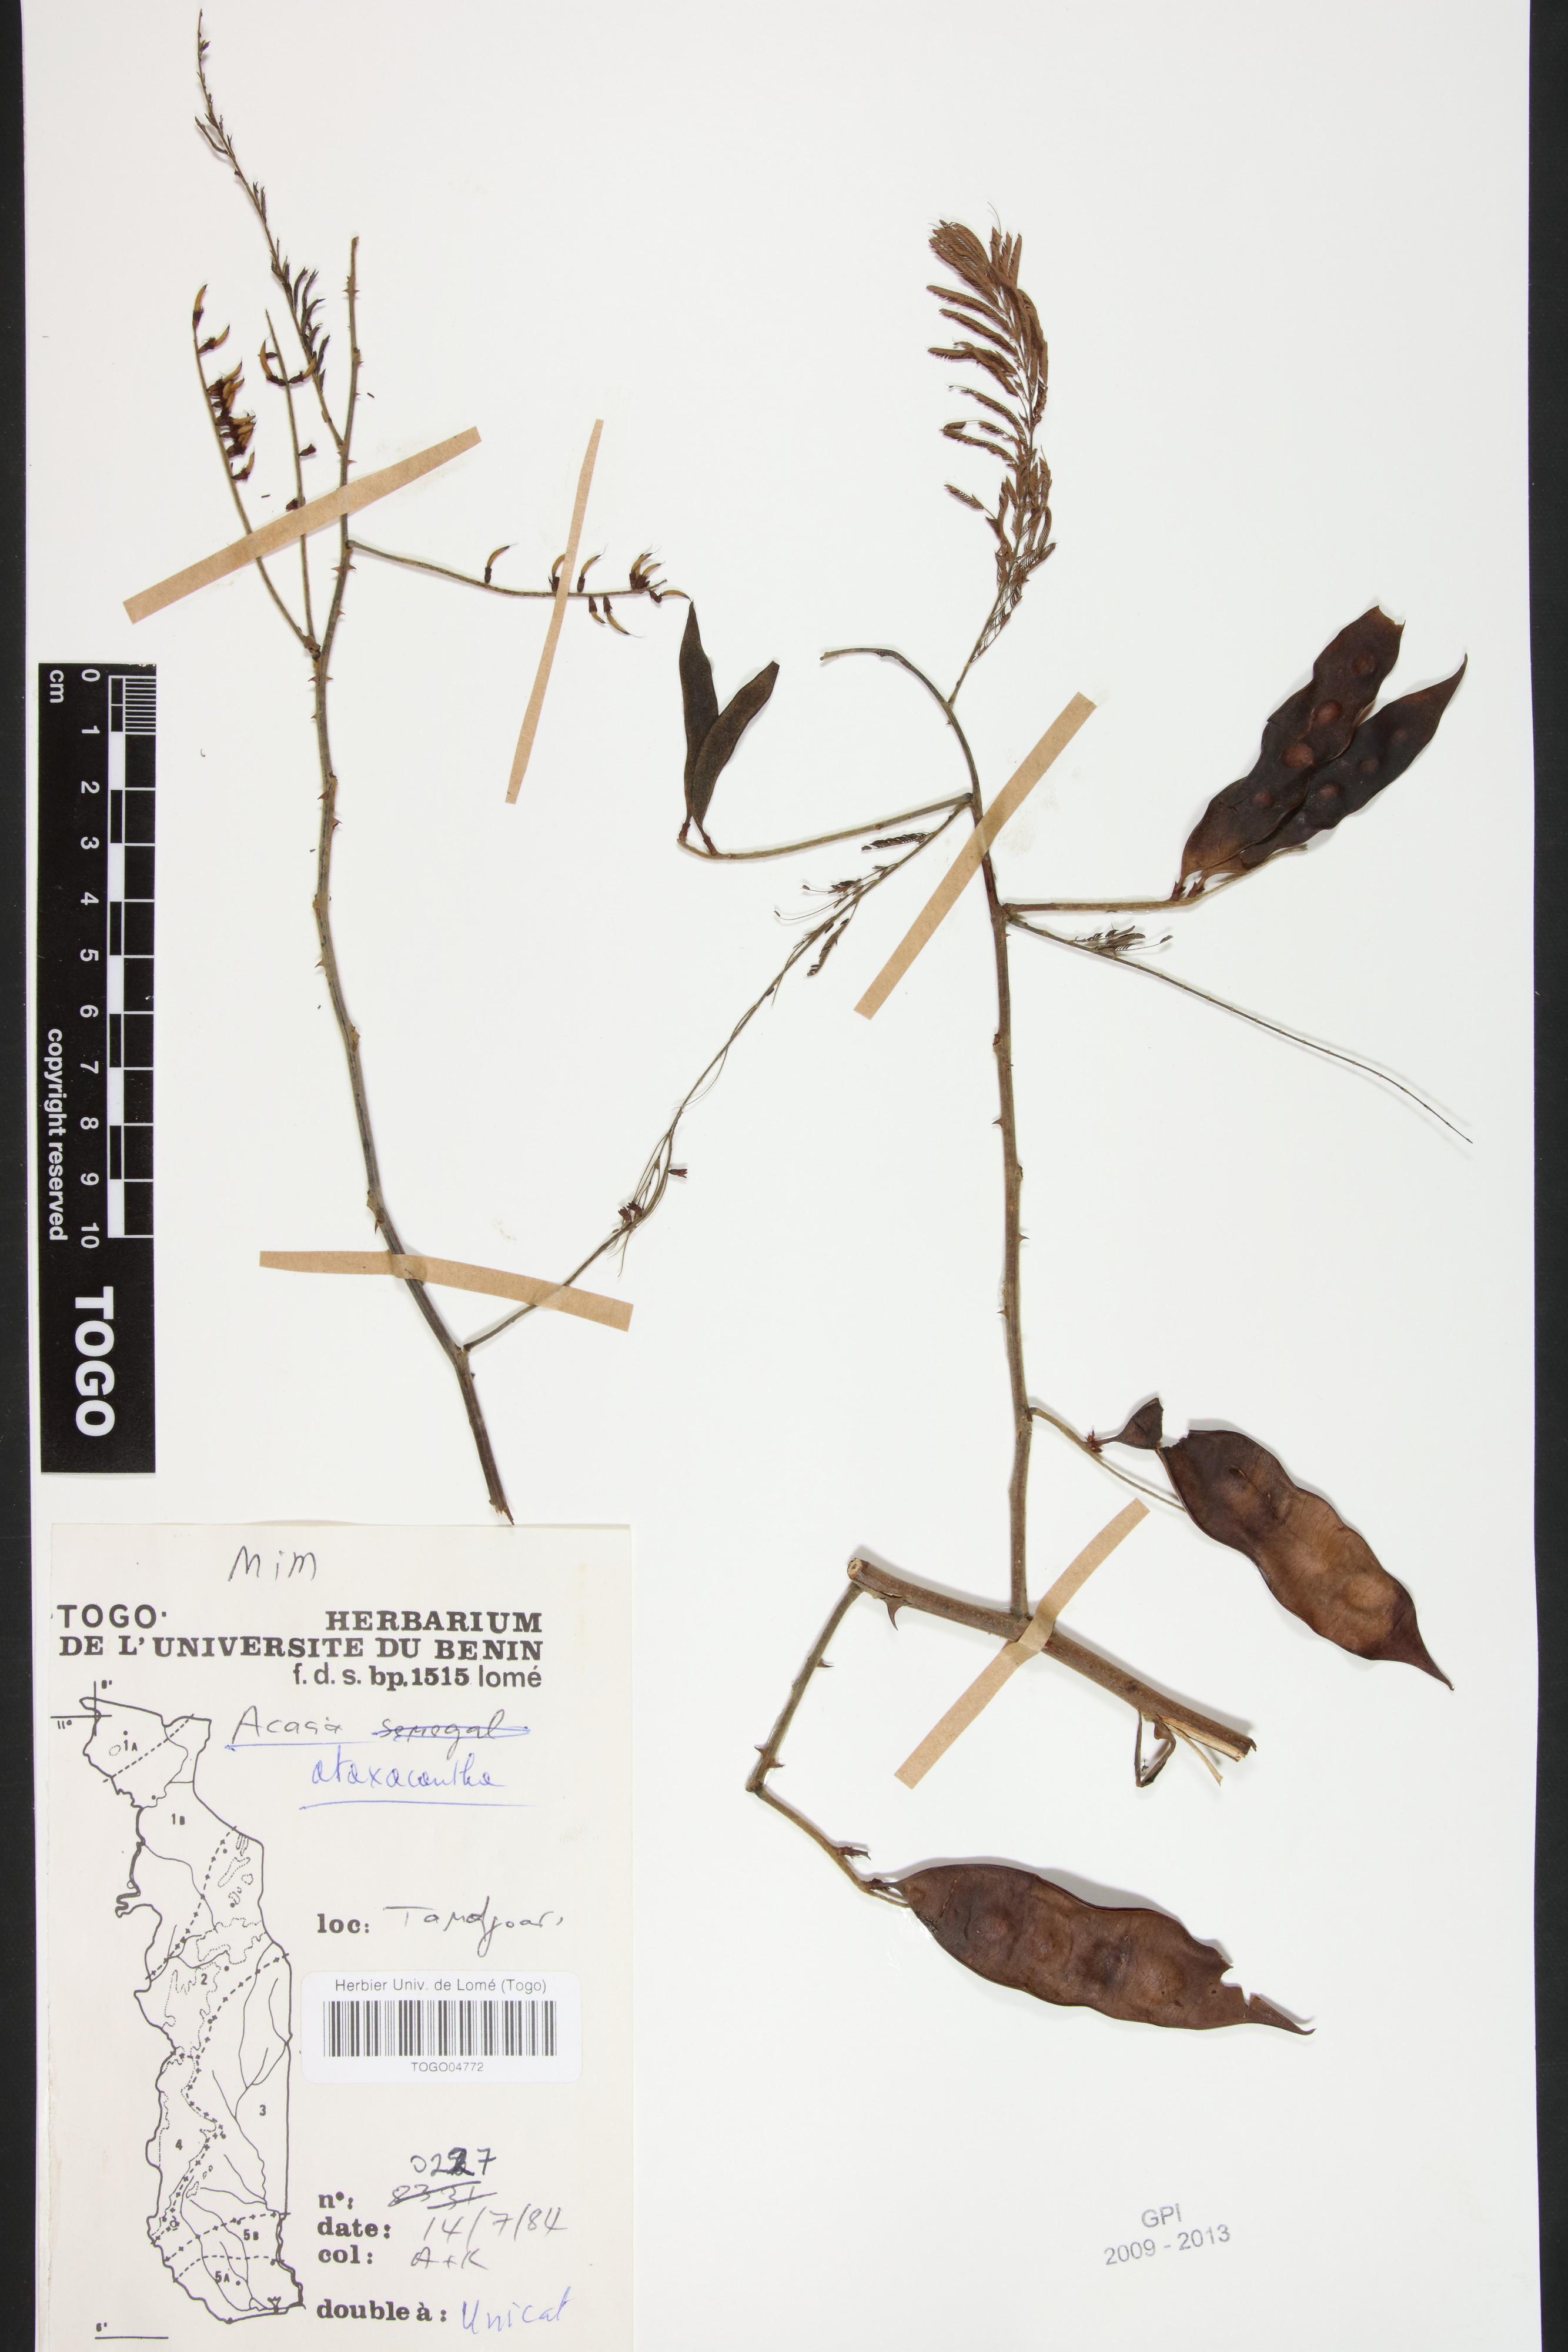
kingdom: Plantae
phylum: Tracheophyta
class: Magnoliopsida
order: Fabales
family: Fabaceae
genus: Senegalia
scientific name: Senegalia ataxacantha
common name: Flame acacia
